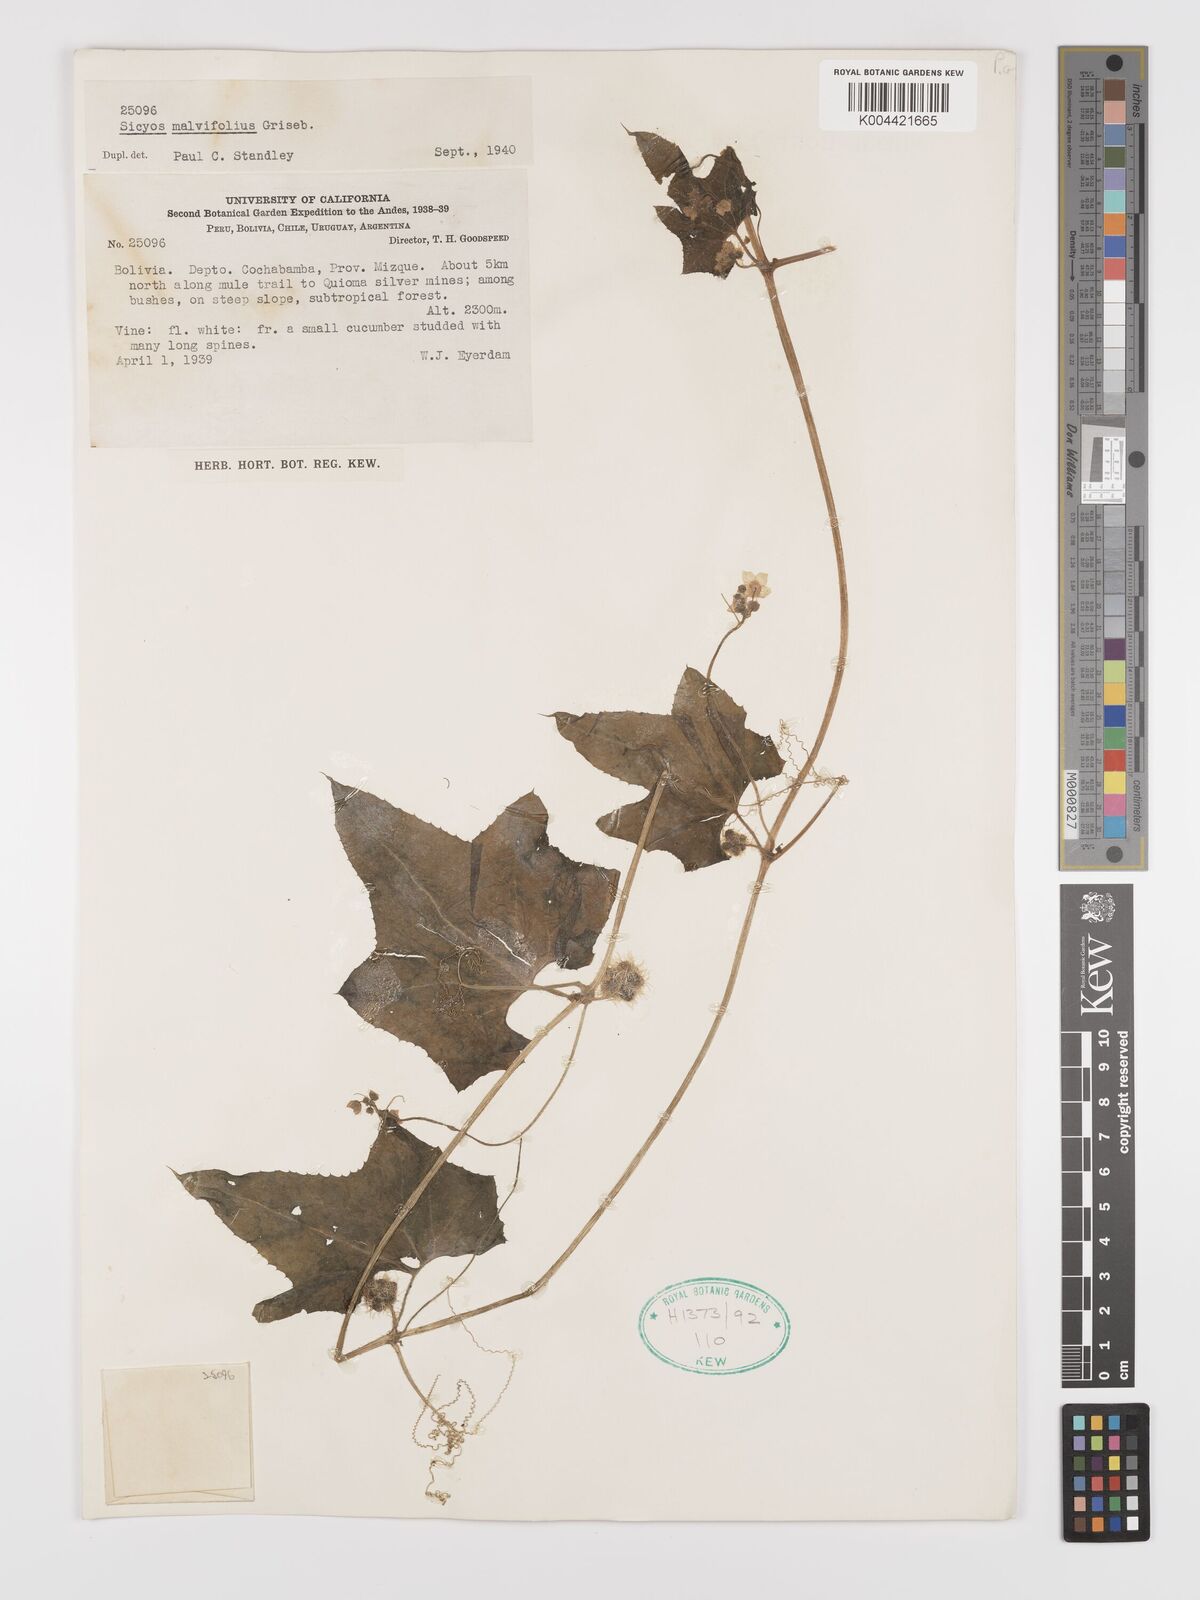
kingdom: Plantae
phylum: Tracheophyta
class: Magnoliopsida
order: Cucurbitales
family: Cucurbitaceae
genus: Sicyos
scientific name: Sicyos malvifolius
